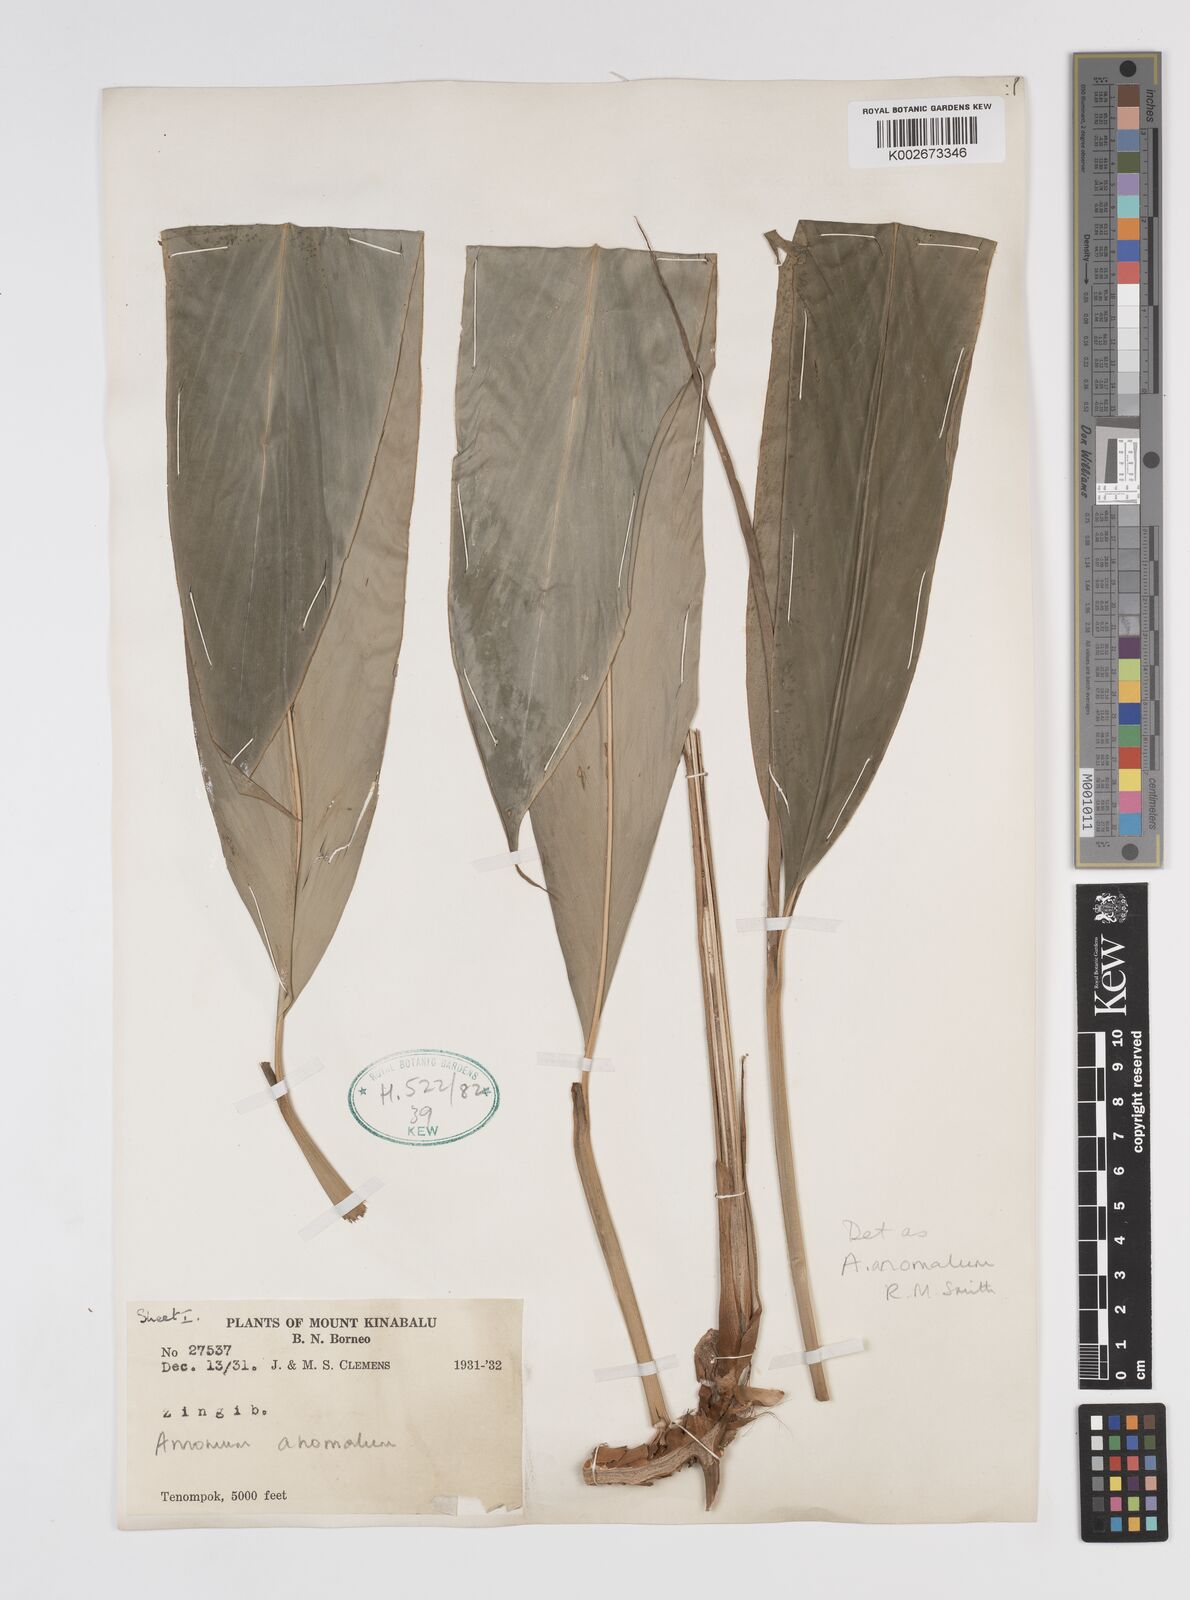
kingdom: Plantae
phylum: Tracheophyta
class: Liliopsida
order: Zingiberales
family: Zingiberaceae
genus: Sulettaria
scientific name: Sulettaria anomala
